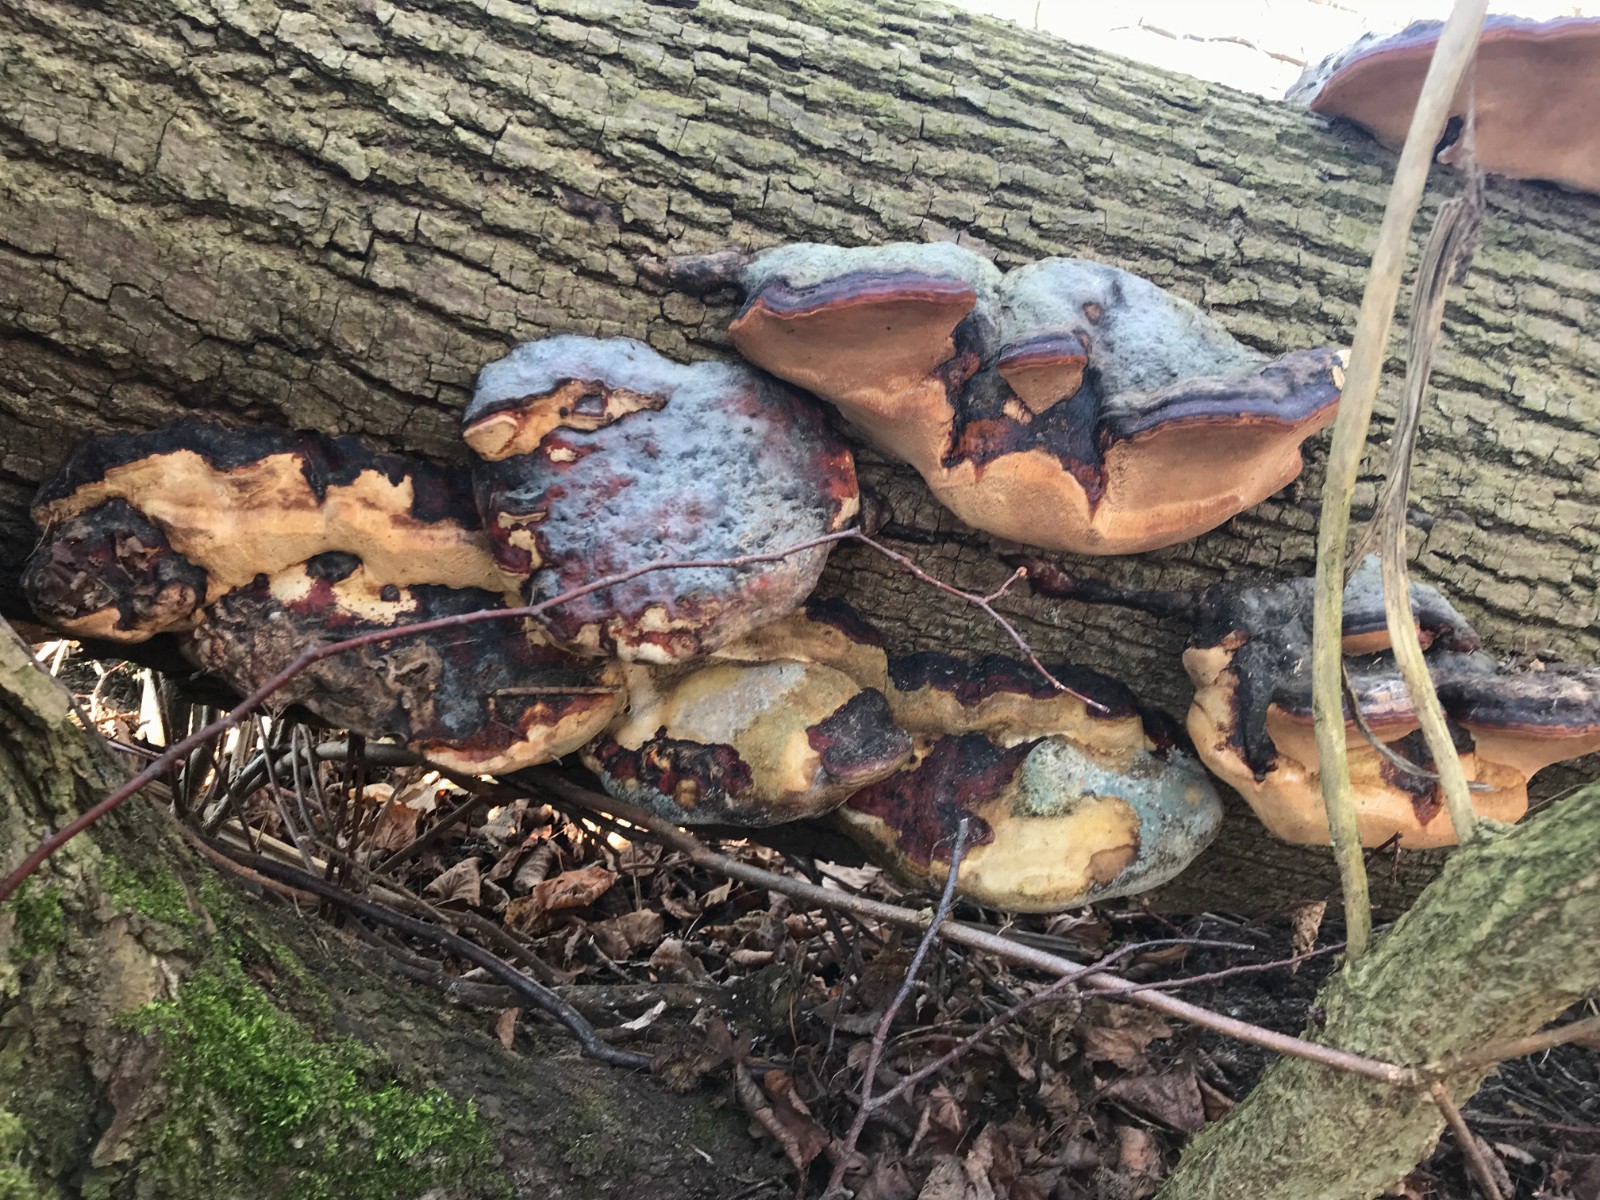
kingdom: Fungi
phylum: Basidiomycota
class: Agaricomycetes
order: Polyporales
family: Fomitopsidaceae
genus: Fomitopsis
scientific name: Fomitopsis pinicola
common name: randbæltet hovporesvamp
